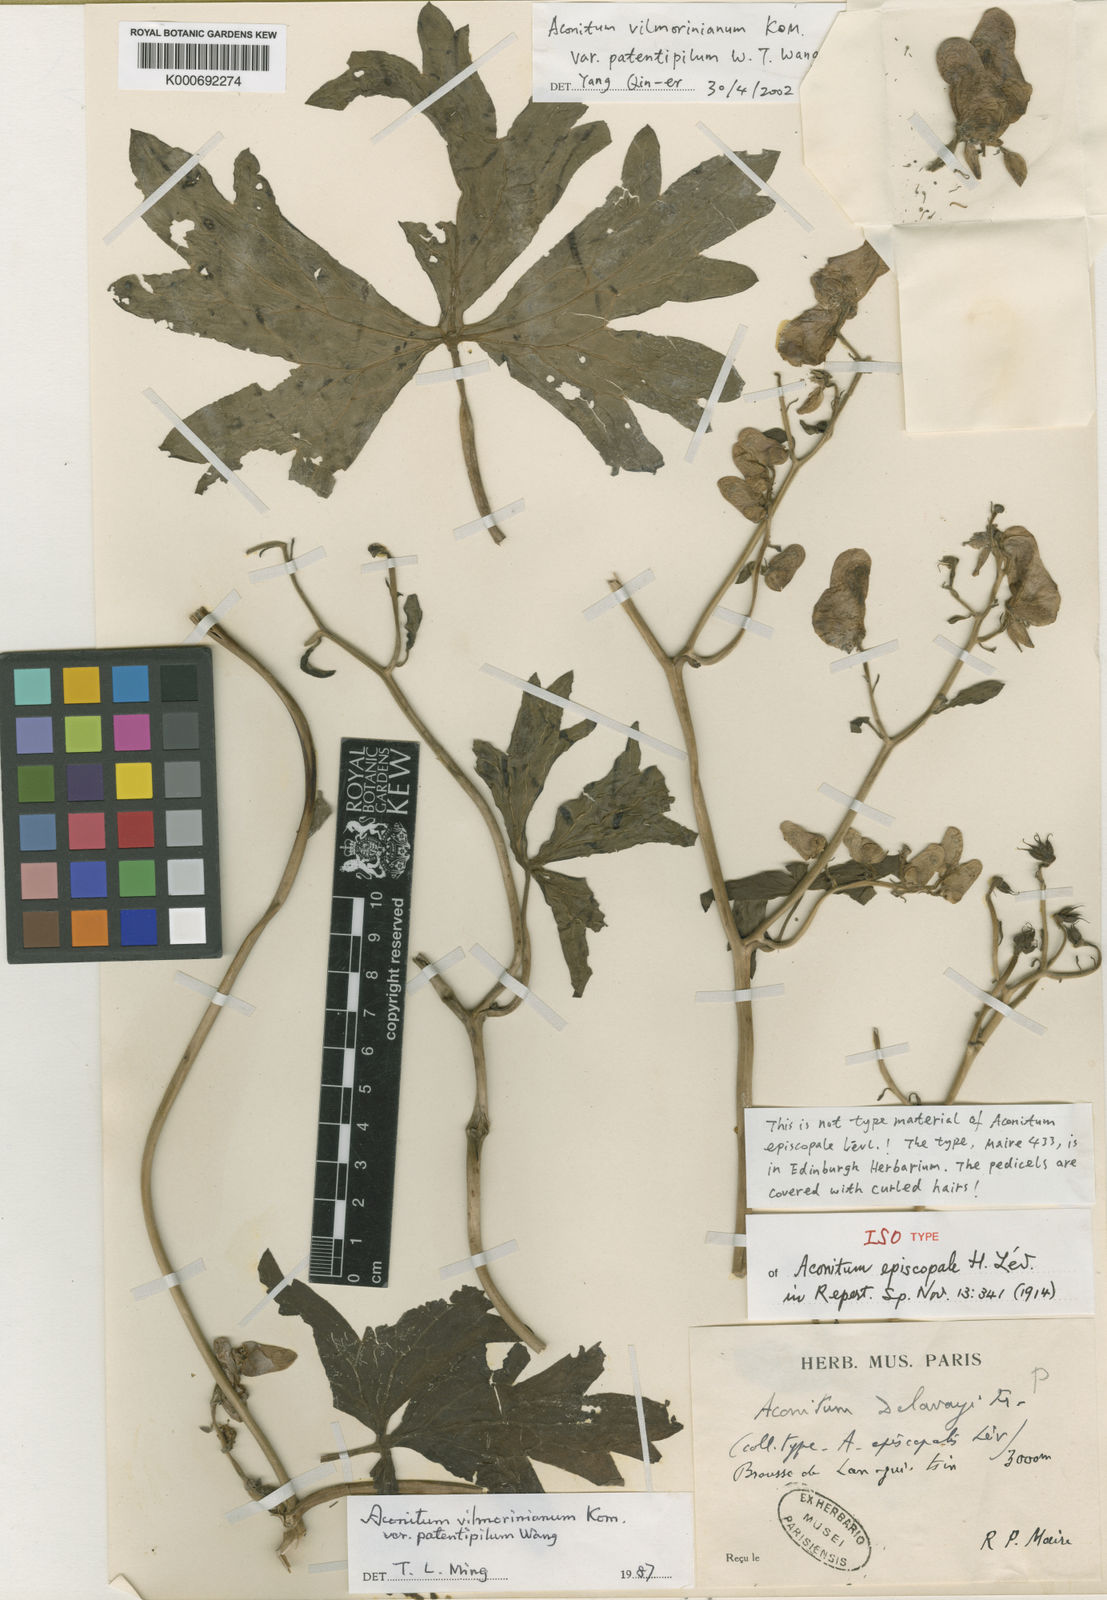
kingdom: Plantae
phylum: Tracheophyta
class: Magnoliopsida
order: Ranunculales
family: Ranunculaceae
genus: Aconitum
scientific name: Aconitum vilmorinianum
